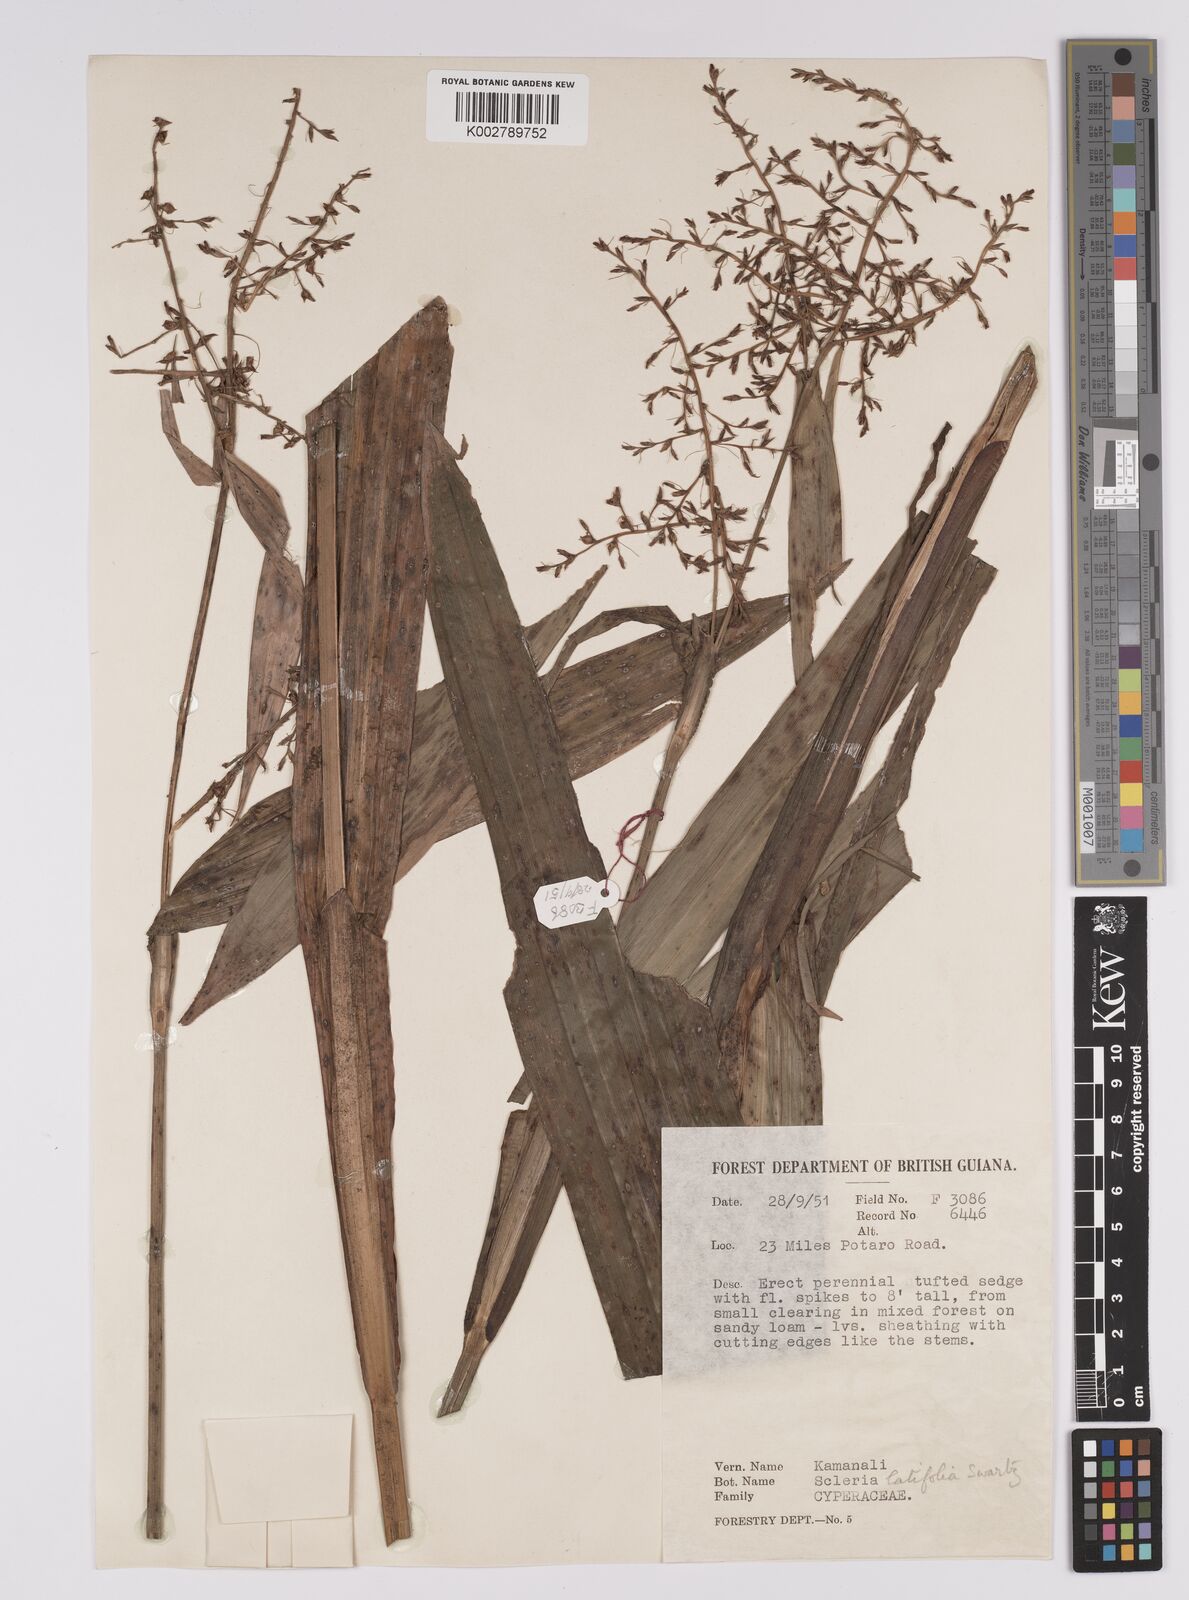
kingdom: Plantae
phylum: Tracheophyta
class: Liliopsida
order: Poales
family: Cyperaceae
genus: Scleria
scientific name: Scleria latifolia
